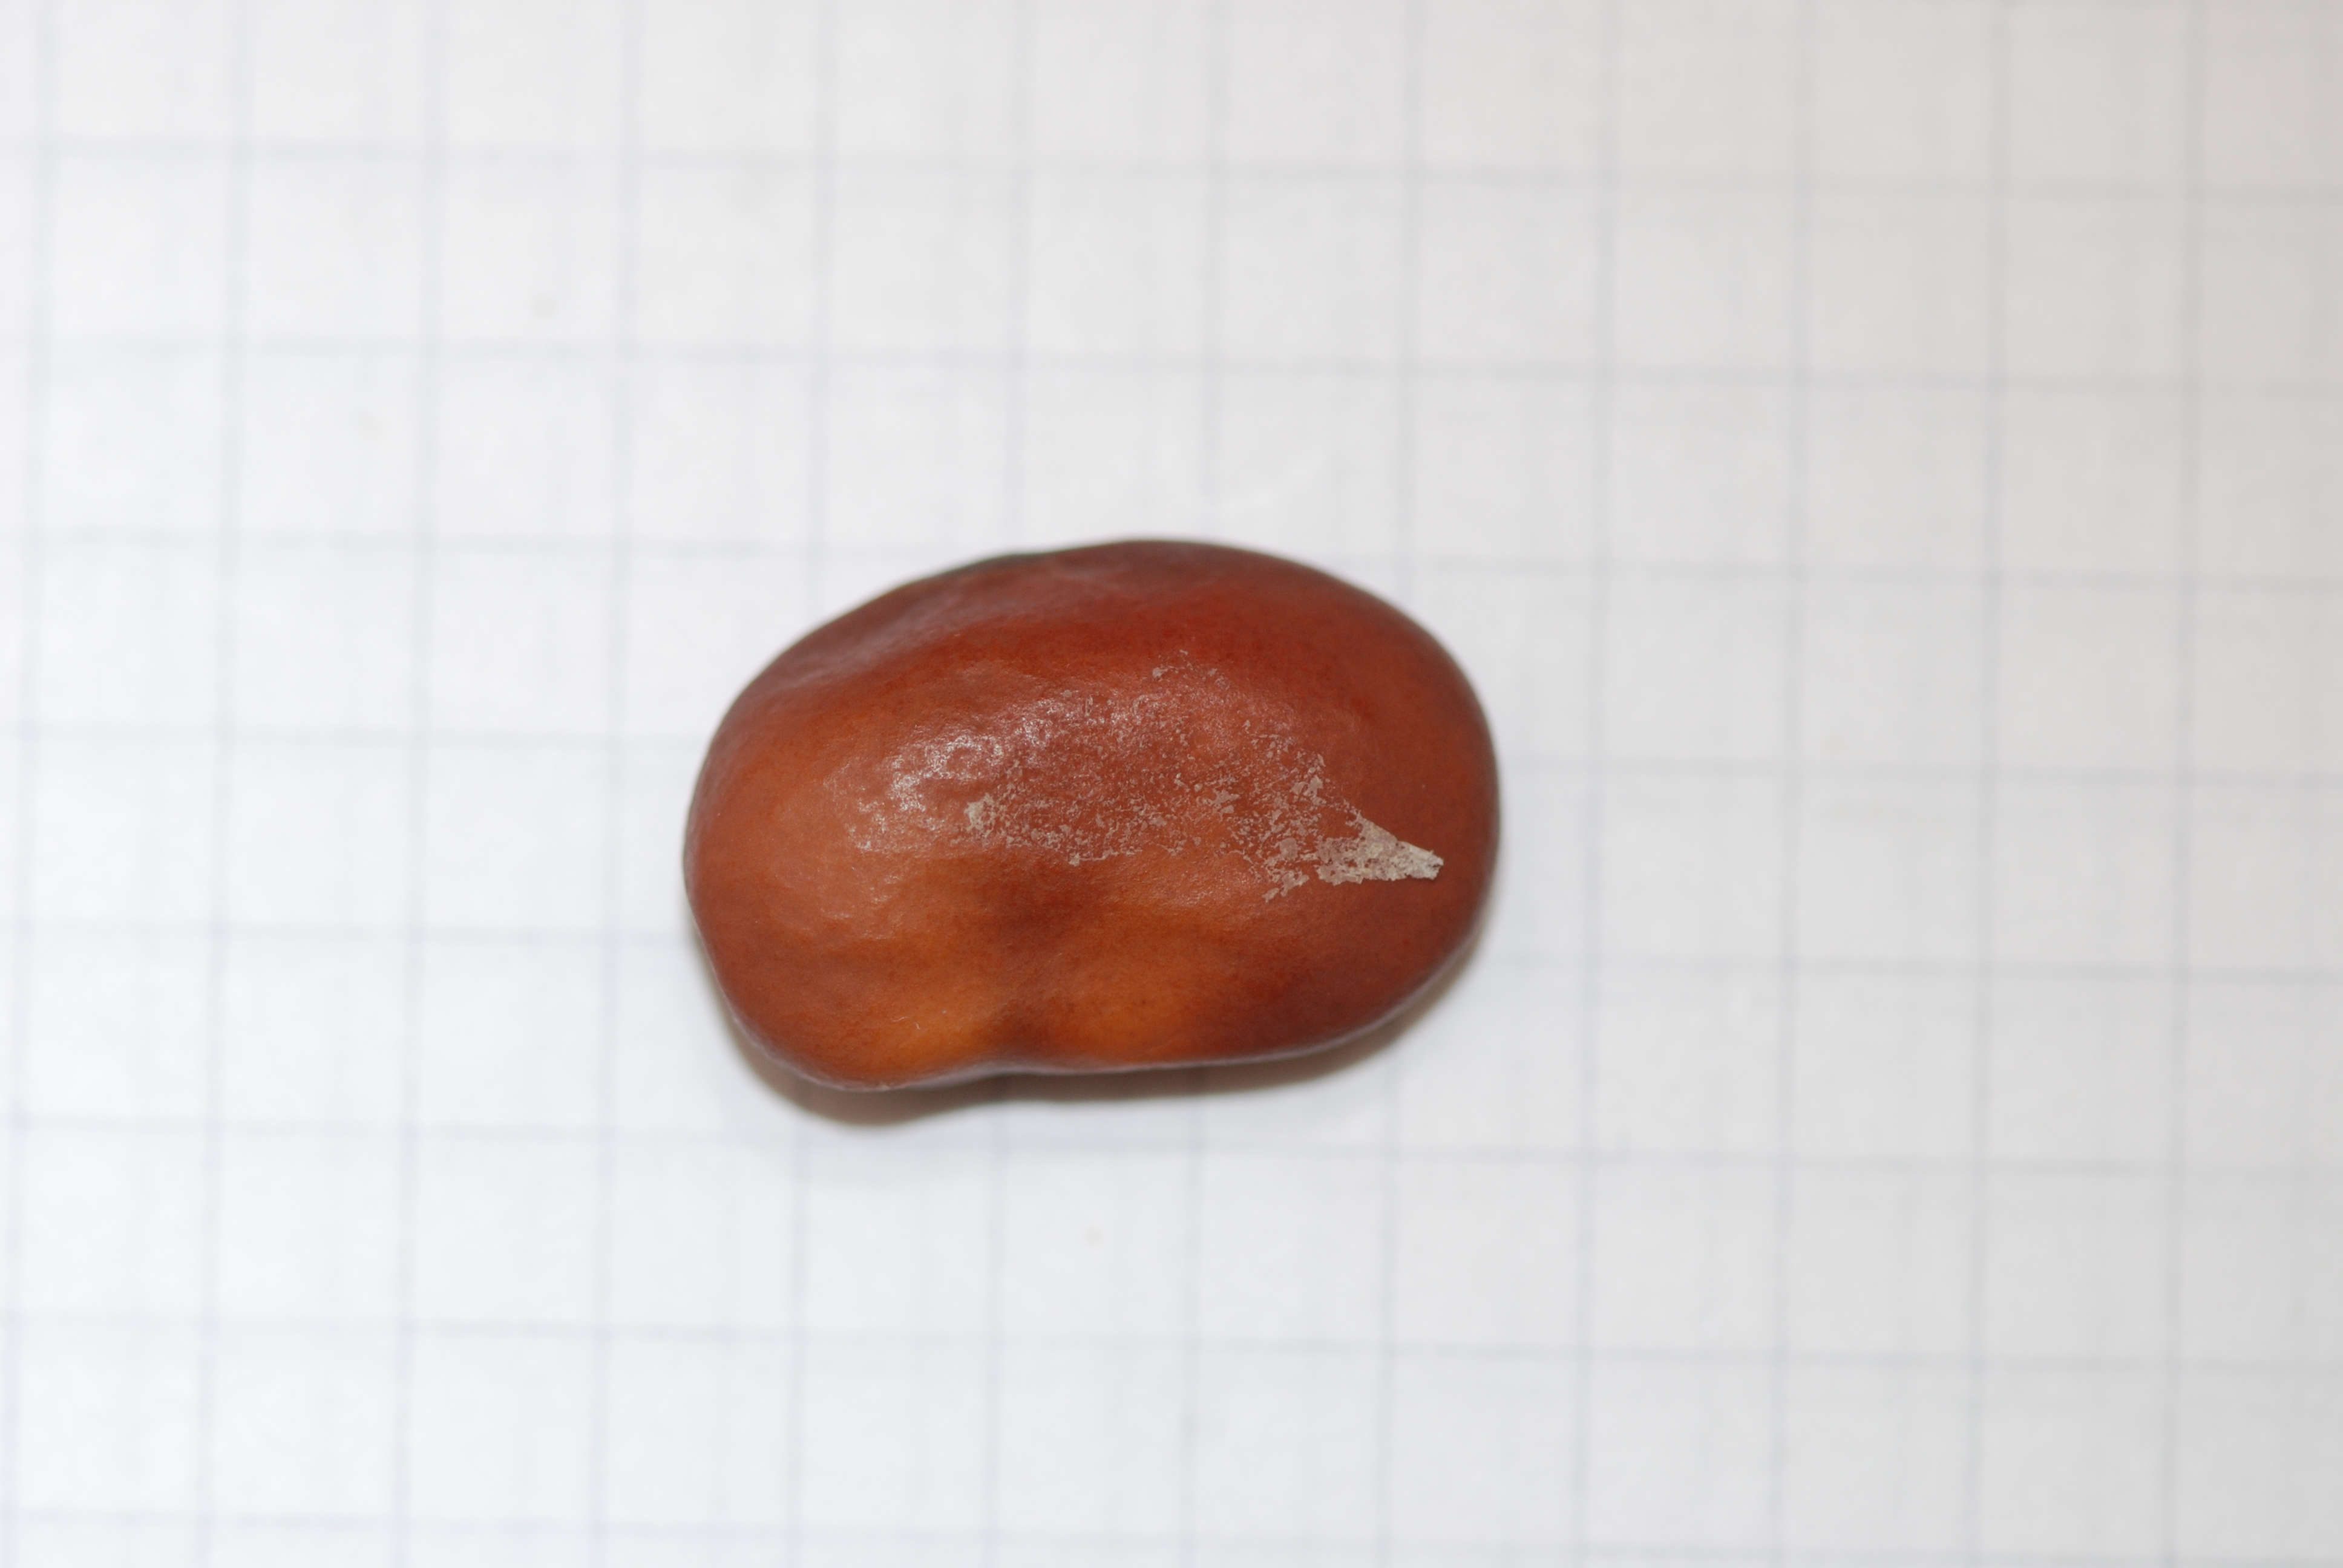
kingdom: Plantae
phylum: Tracheophyta
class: Magnoliopsida
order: Fabales
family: Fabaceae
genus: Vicia
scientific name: Vicia faba
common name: Broad bean
